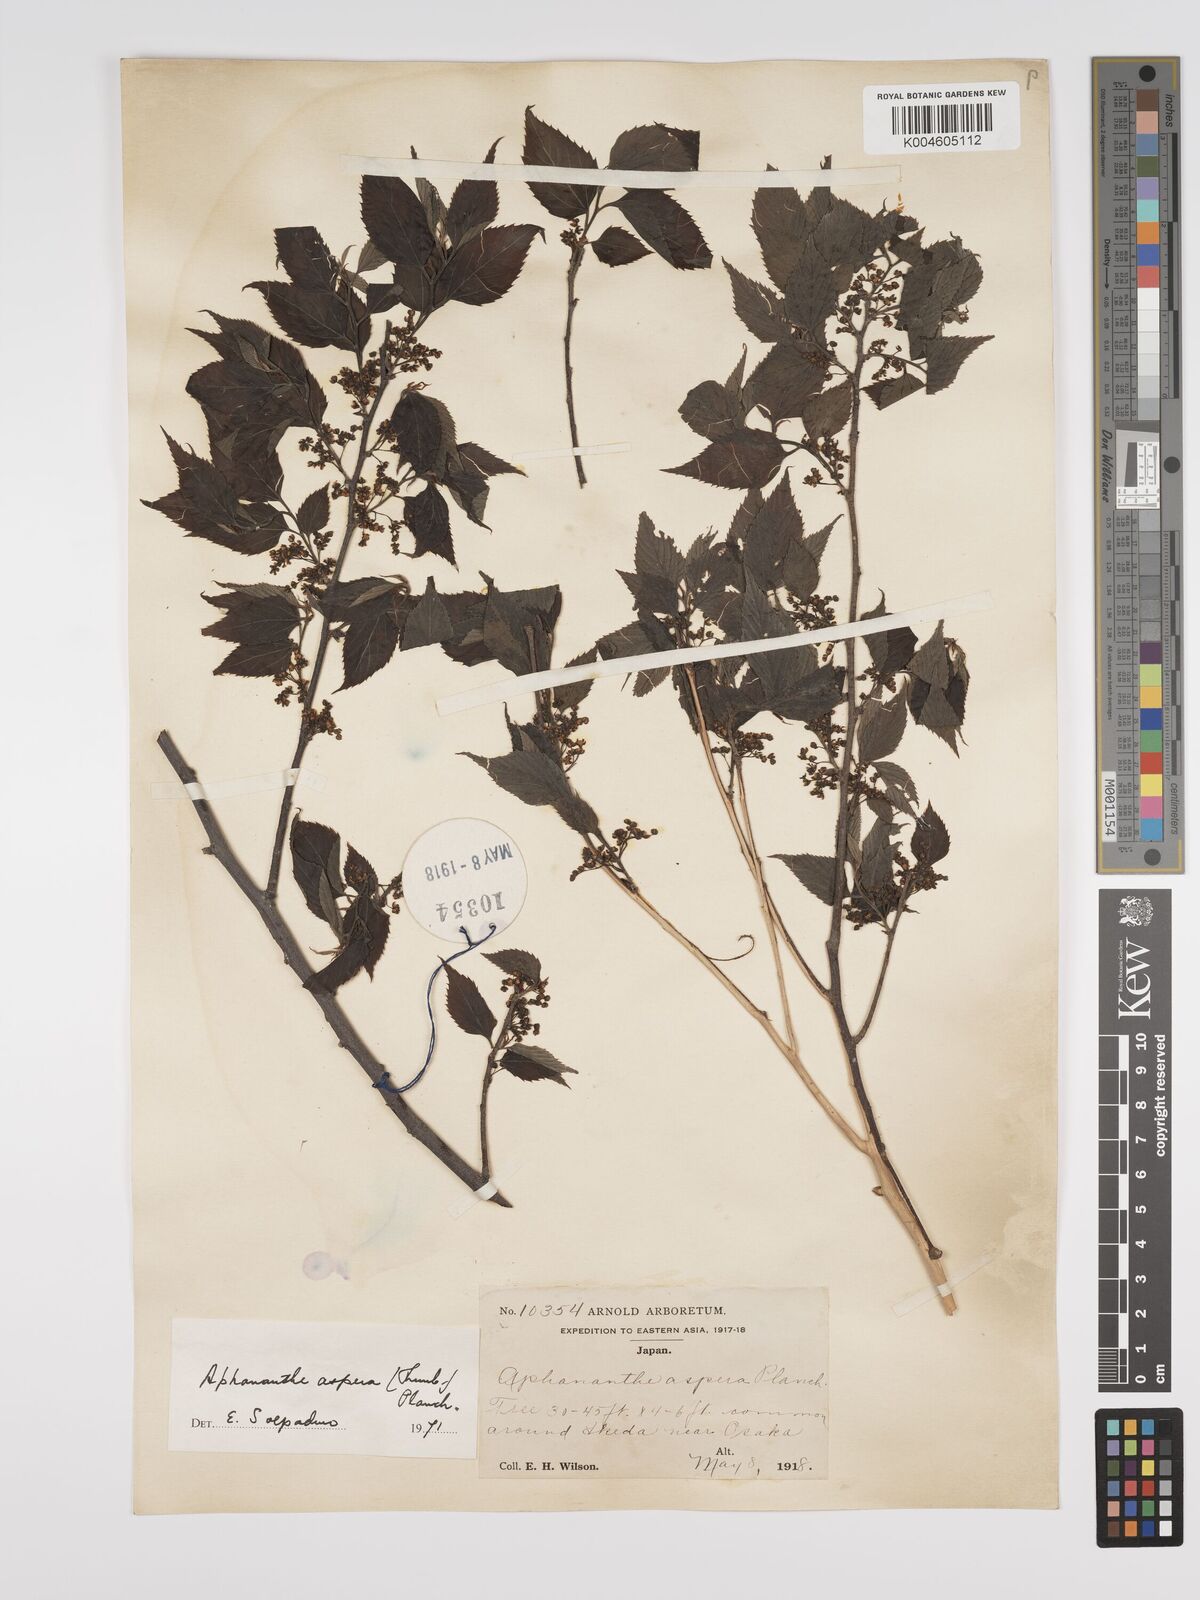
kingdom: Plantae
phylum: Tracheophyta
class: Magnoliopsida
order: Rosales
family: Cannabaceae
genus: Aphananthe
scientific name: Aphananthe aspera
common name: Mukutree
